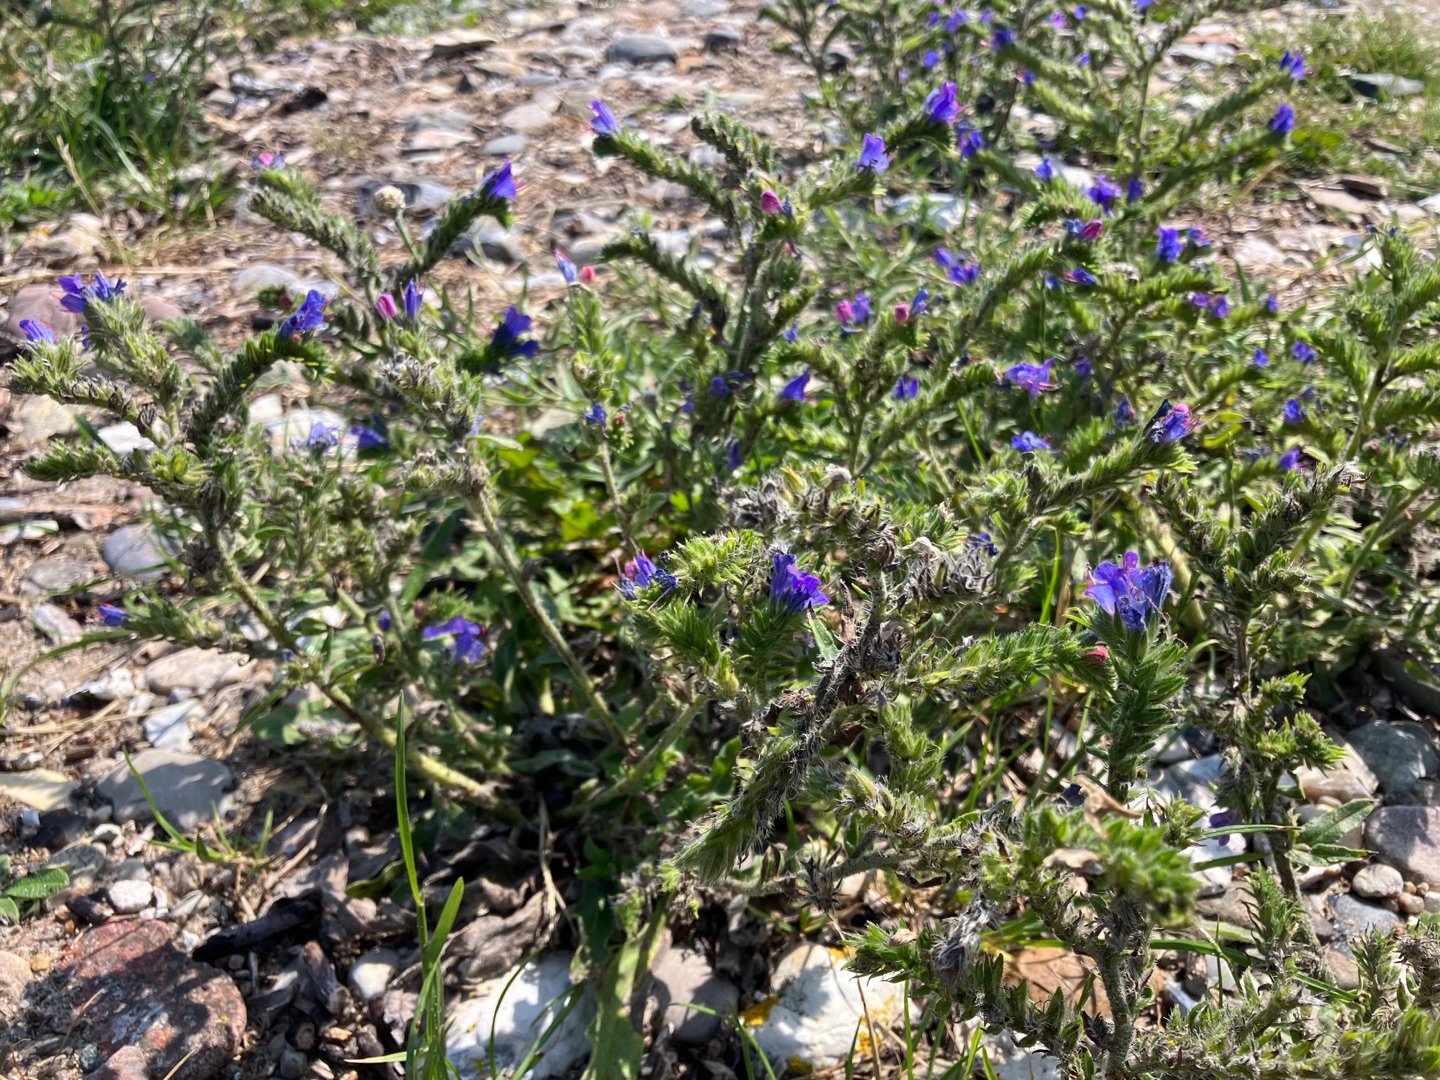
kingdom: Plantae
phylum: Tracheophyta
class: Magnoliopsida
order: Boraginales
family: Boraginaceae
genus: Echium
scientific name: Echium vulgare
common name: Slangehoved
